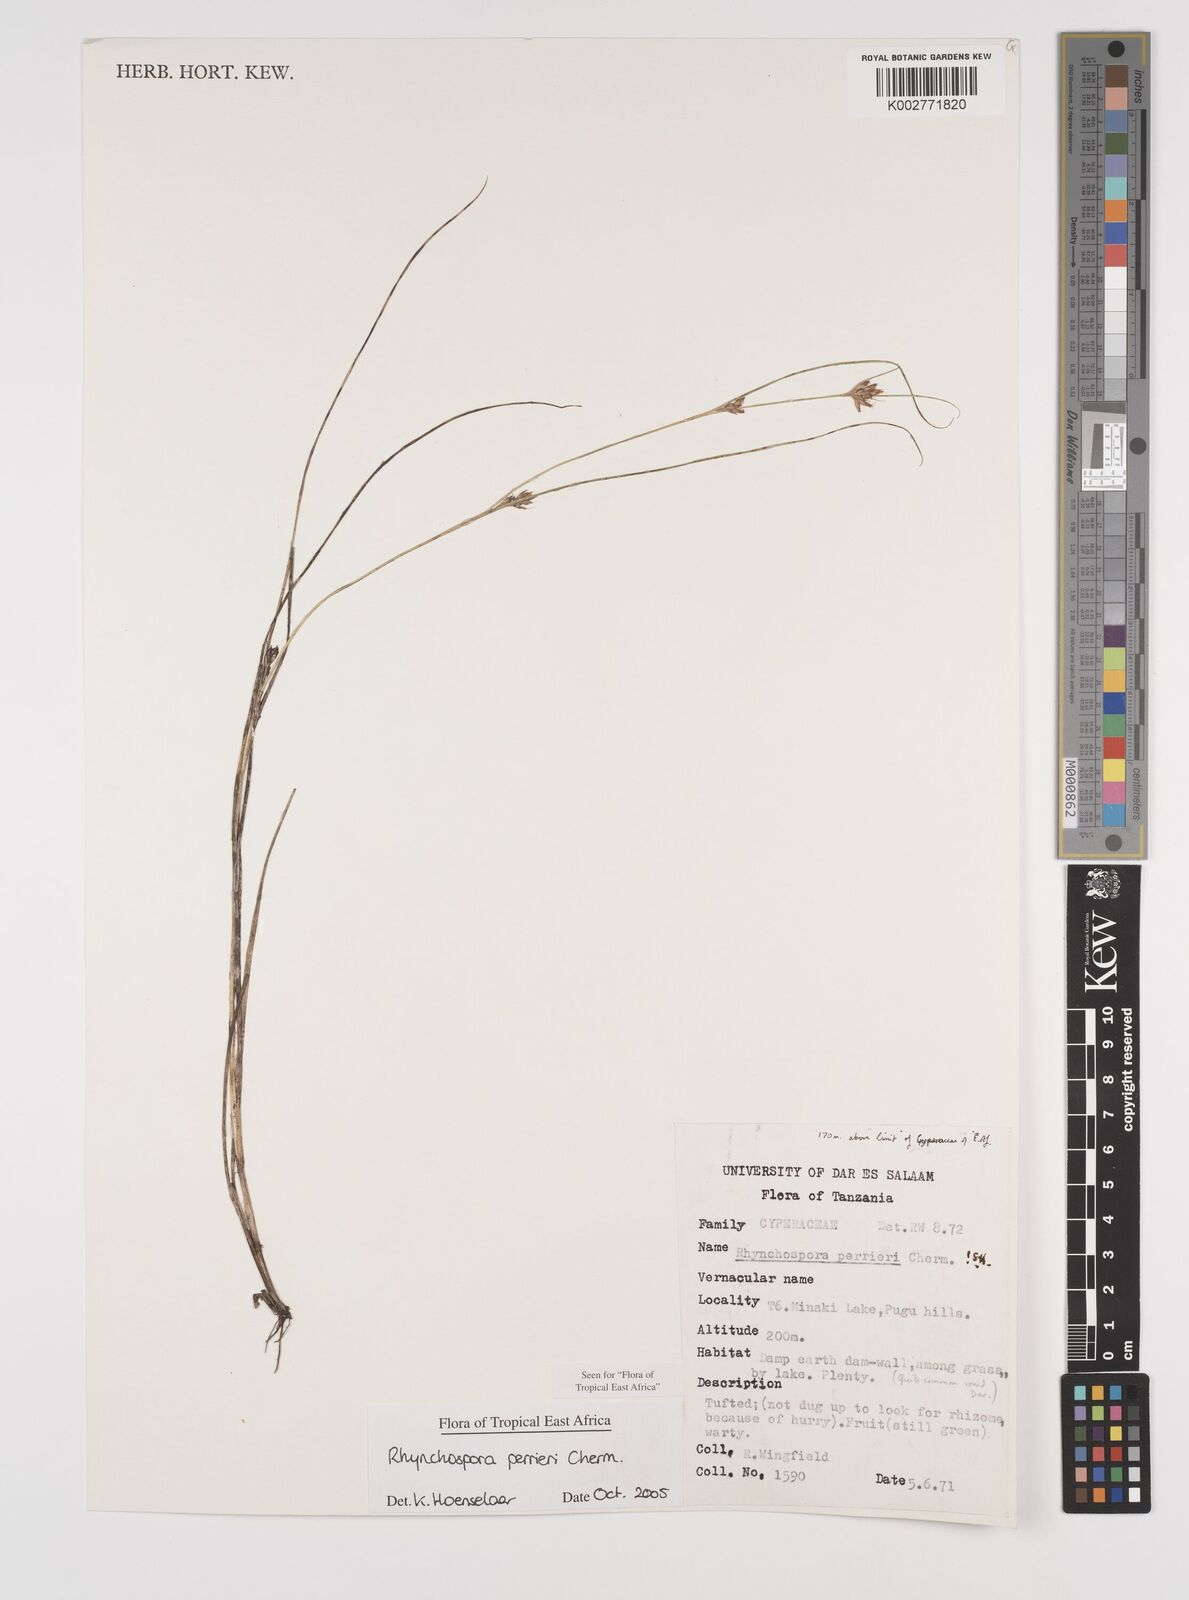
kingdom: Plantae
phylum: Tracheophyta
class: Liliopsida
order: Poales
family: Cyperaceae
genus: Rhynchospora
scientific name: Rhynchospora perrieri
